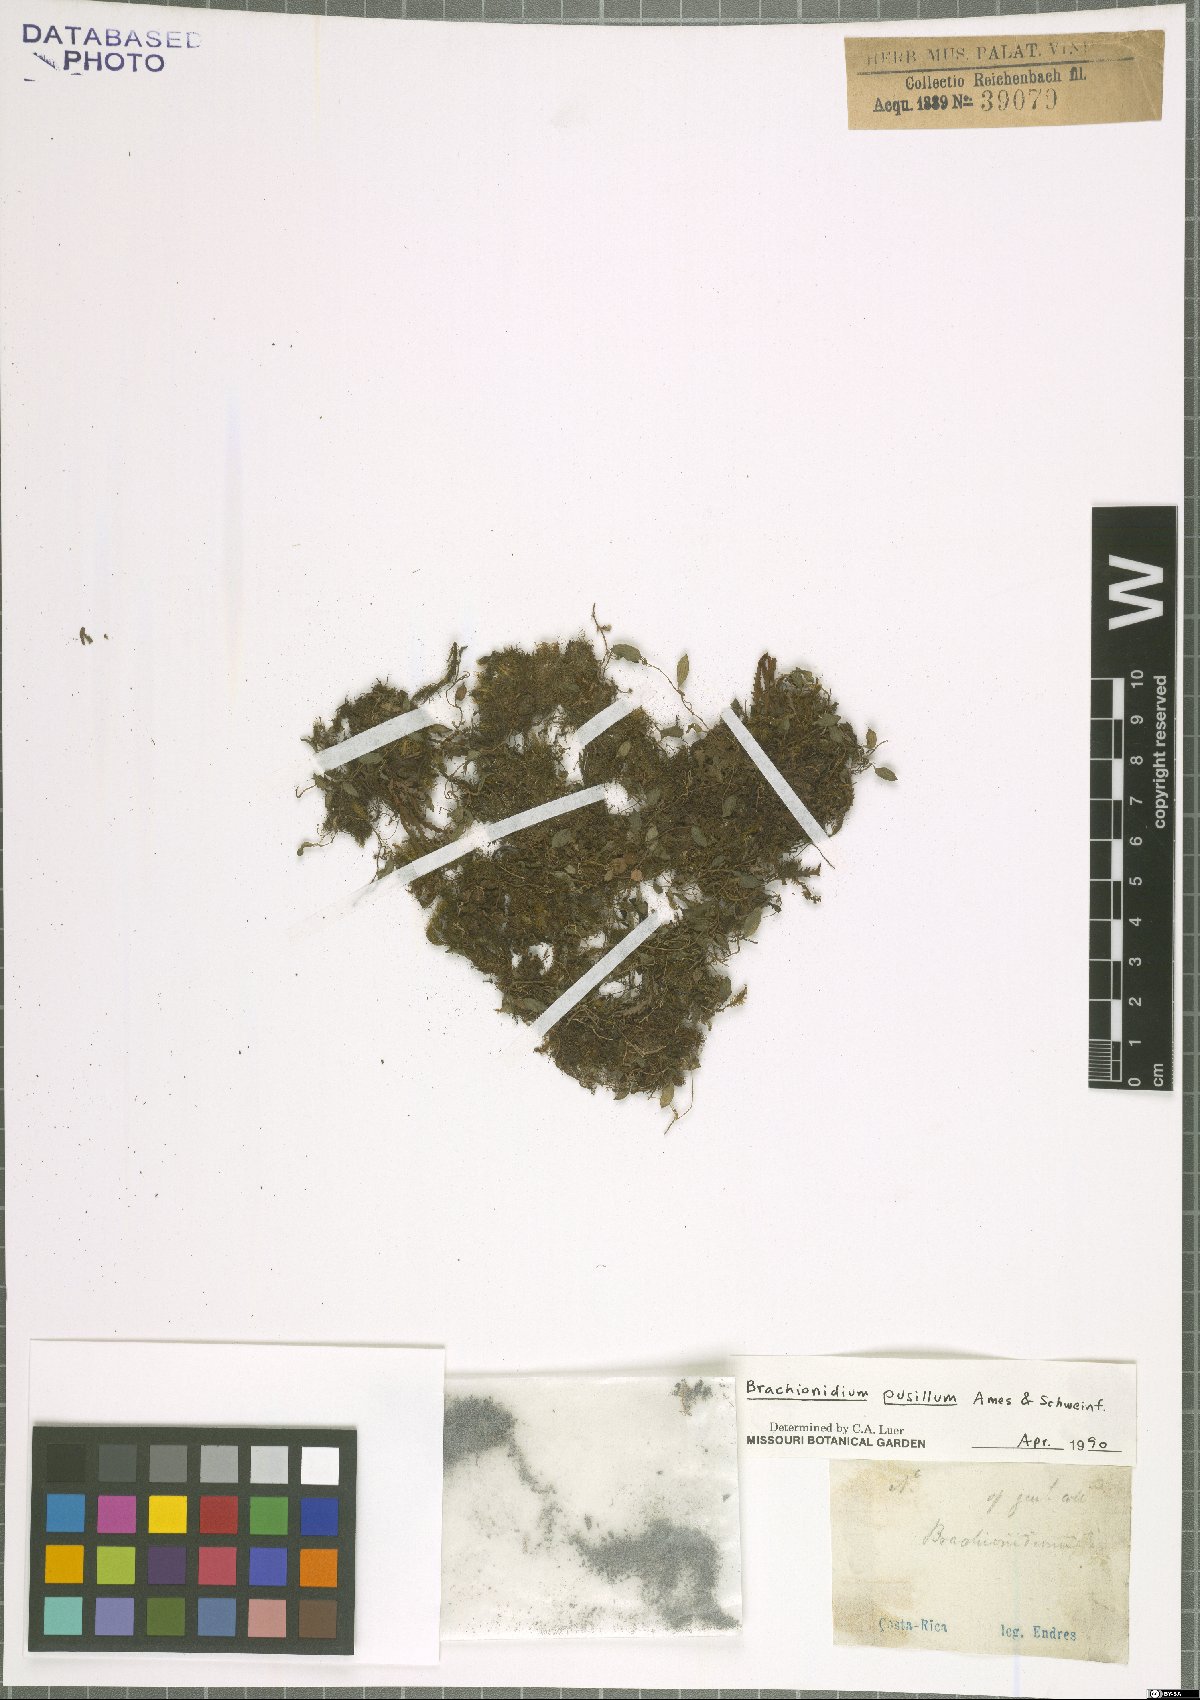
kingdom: Plantae
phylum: Tracheophyta
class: Liliopsida
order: Asparagales
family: Orchidaceae
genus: Brachionidium
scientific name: Brachionidium pusillum
